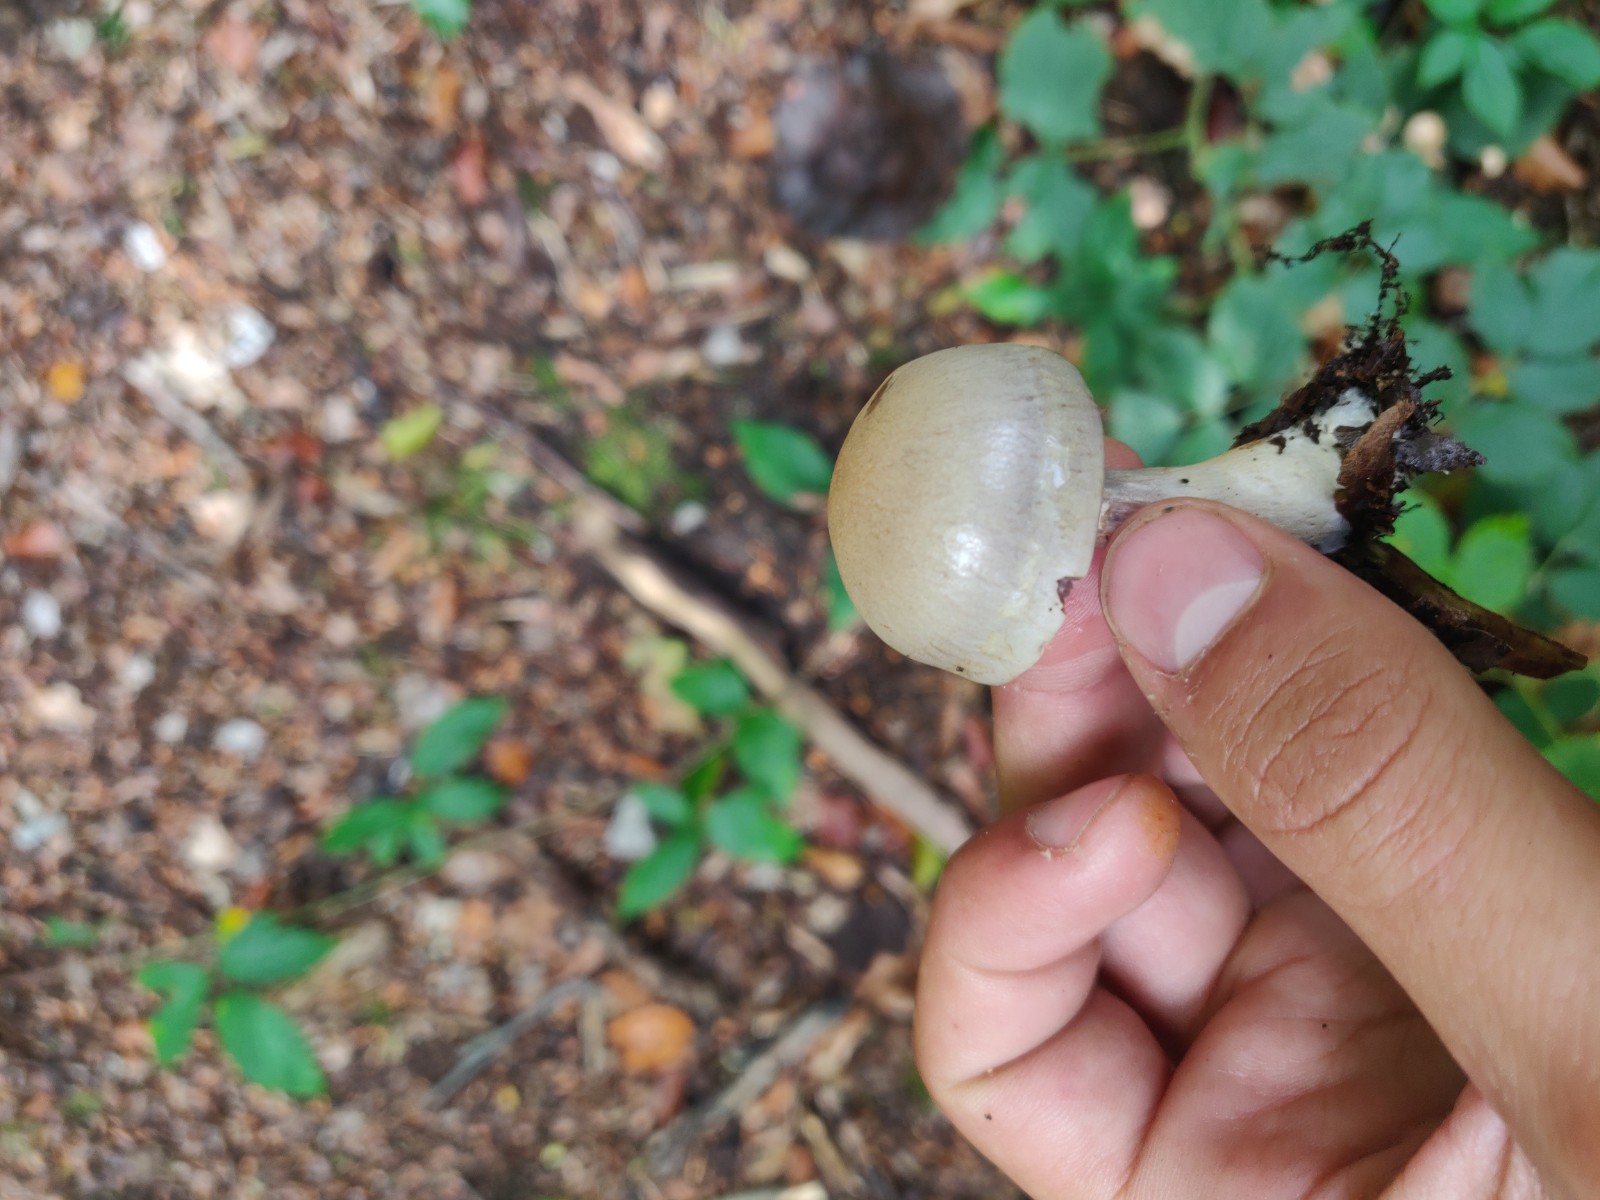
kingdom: Fungi
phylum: Basidiomycota
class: Agaricomycetes
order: Agaricales
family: Cortinariaceae
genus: Cortinarius
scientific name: Cortinarius
